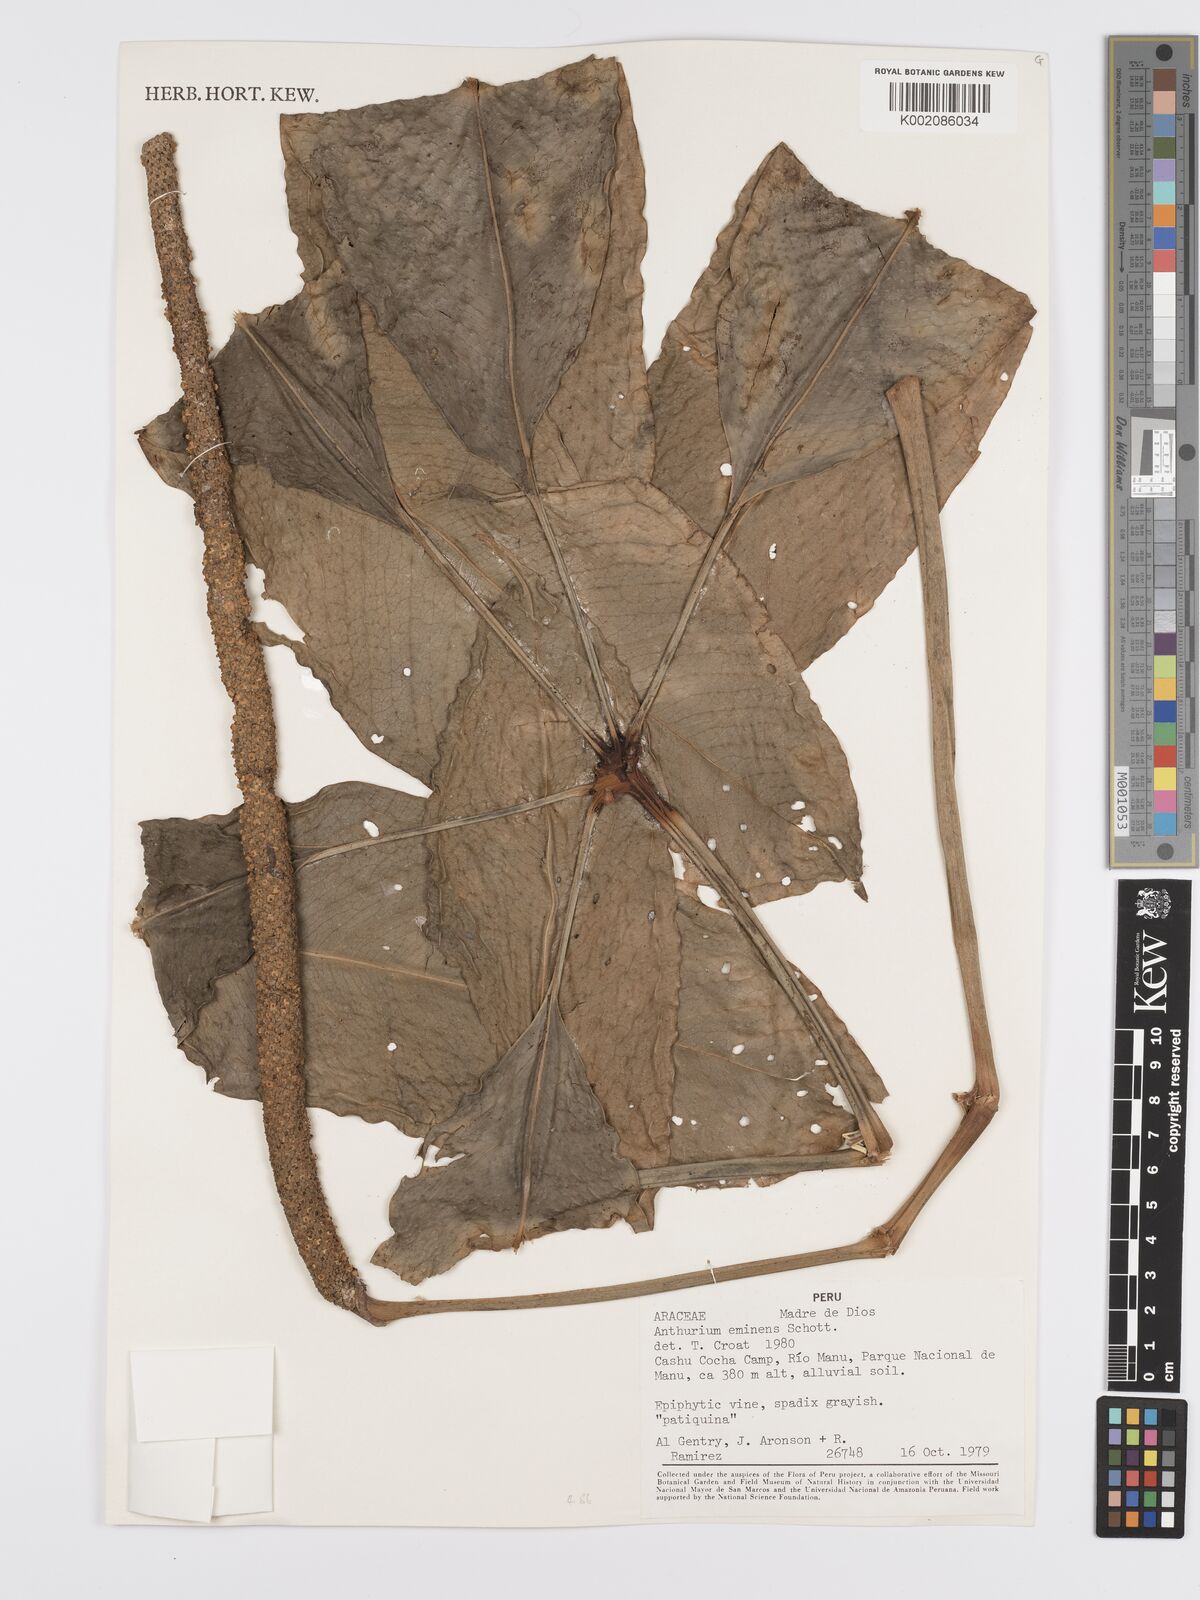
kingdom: Plantae
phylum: Tracheophyta
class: Liliopsida
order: Alismatales
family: Araceae
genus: Anthurium
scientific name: Anthurium eminens
